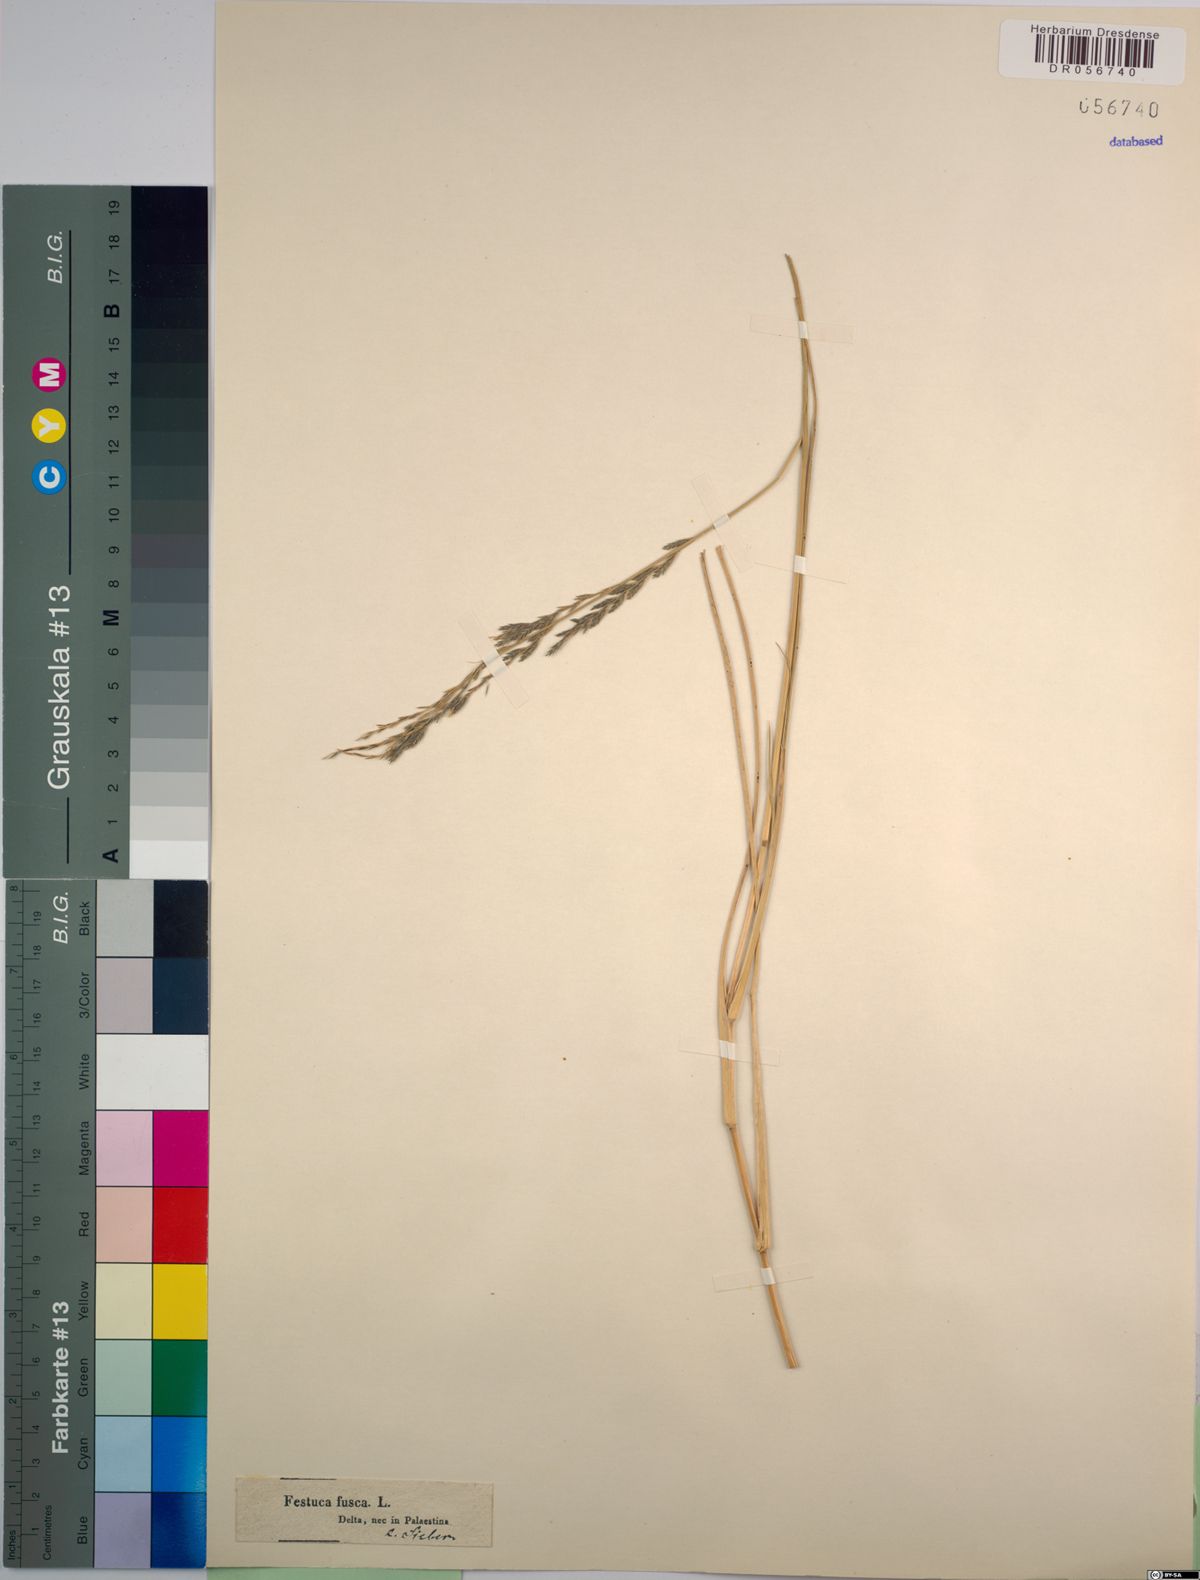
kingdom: Plantae
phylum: Tracheophyta
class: Liliopsida
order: Poales
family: Poaceae
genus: Diplachne
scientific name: Diplachne fusca
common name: Brown beetle grass
